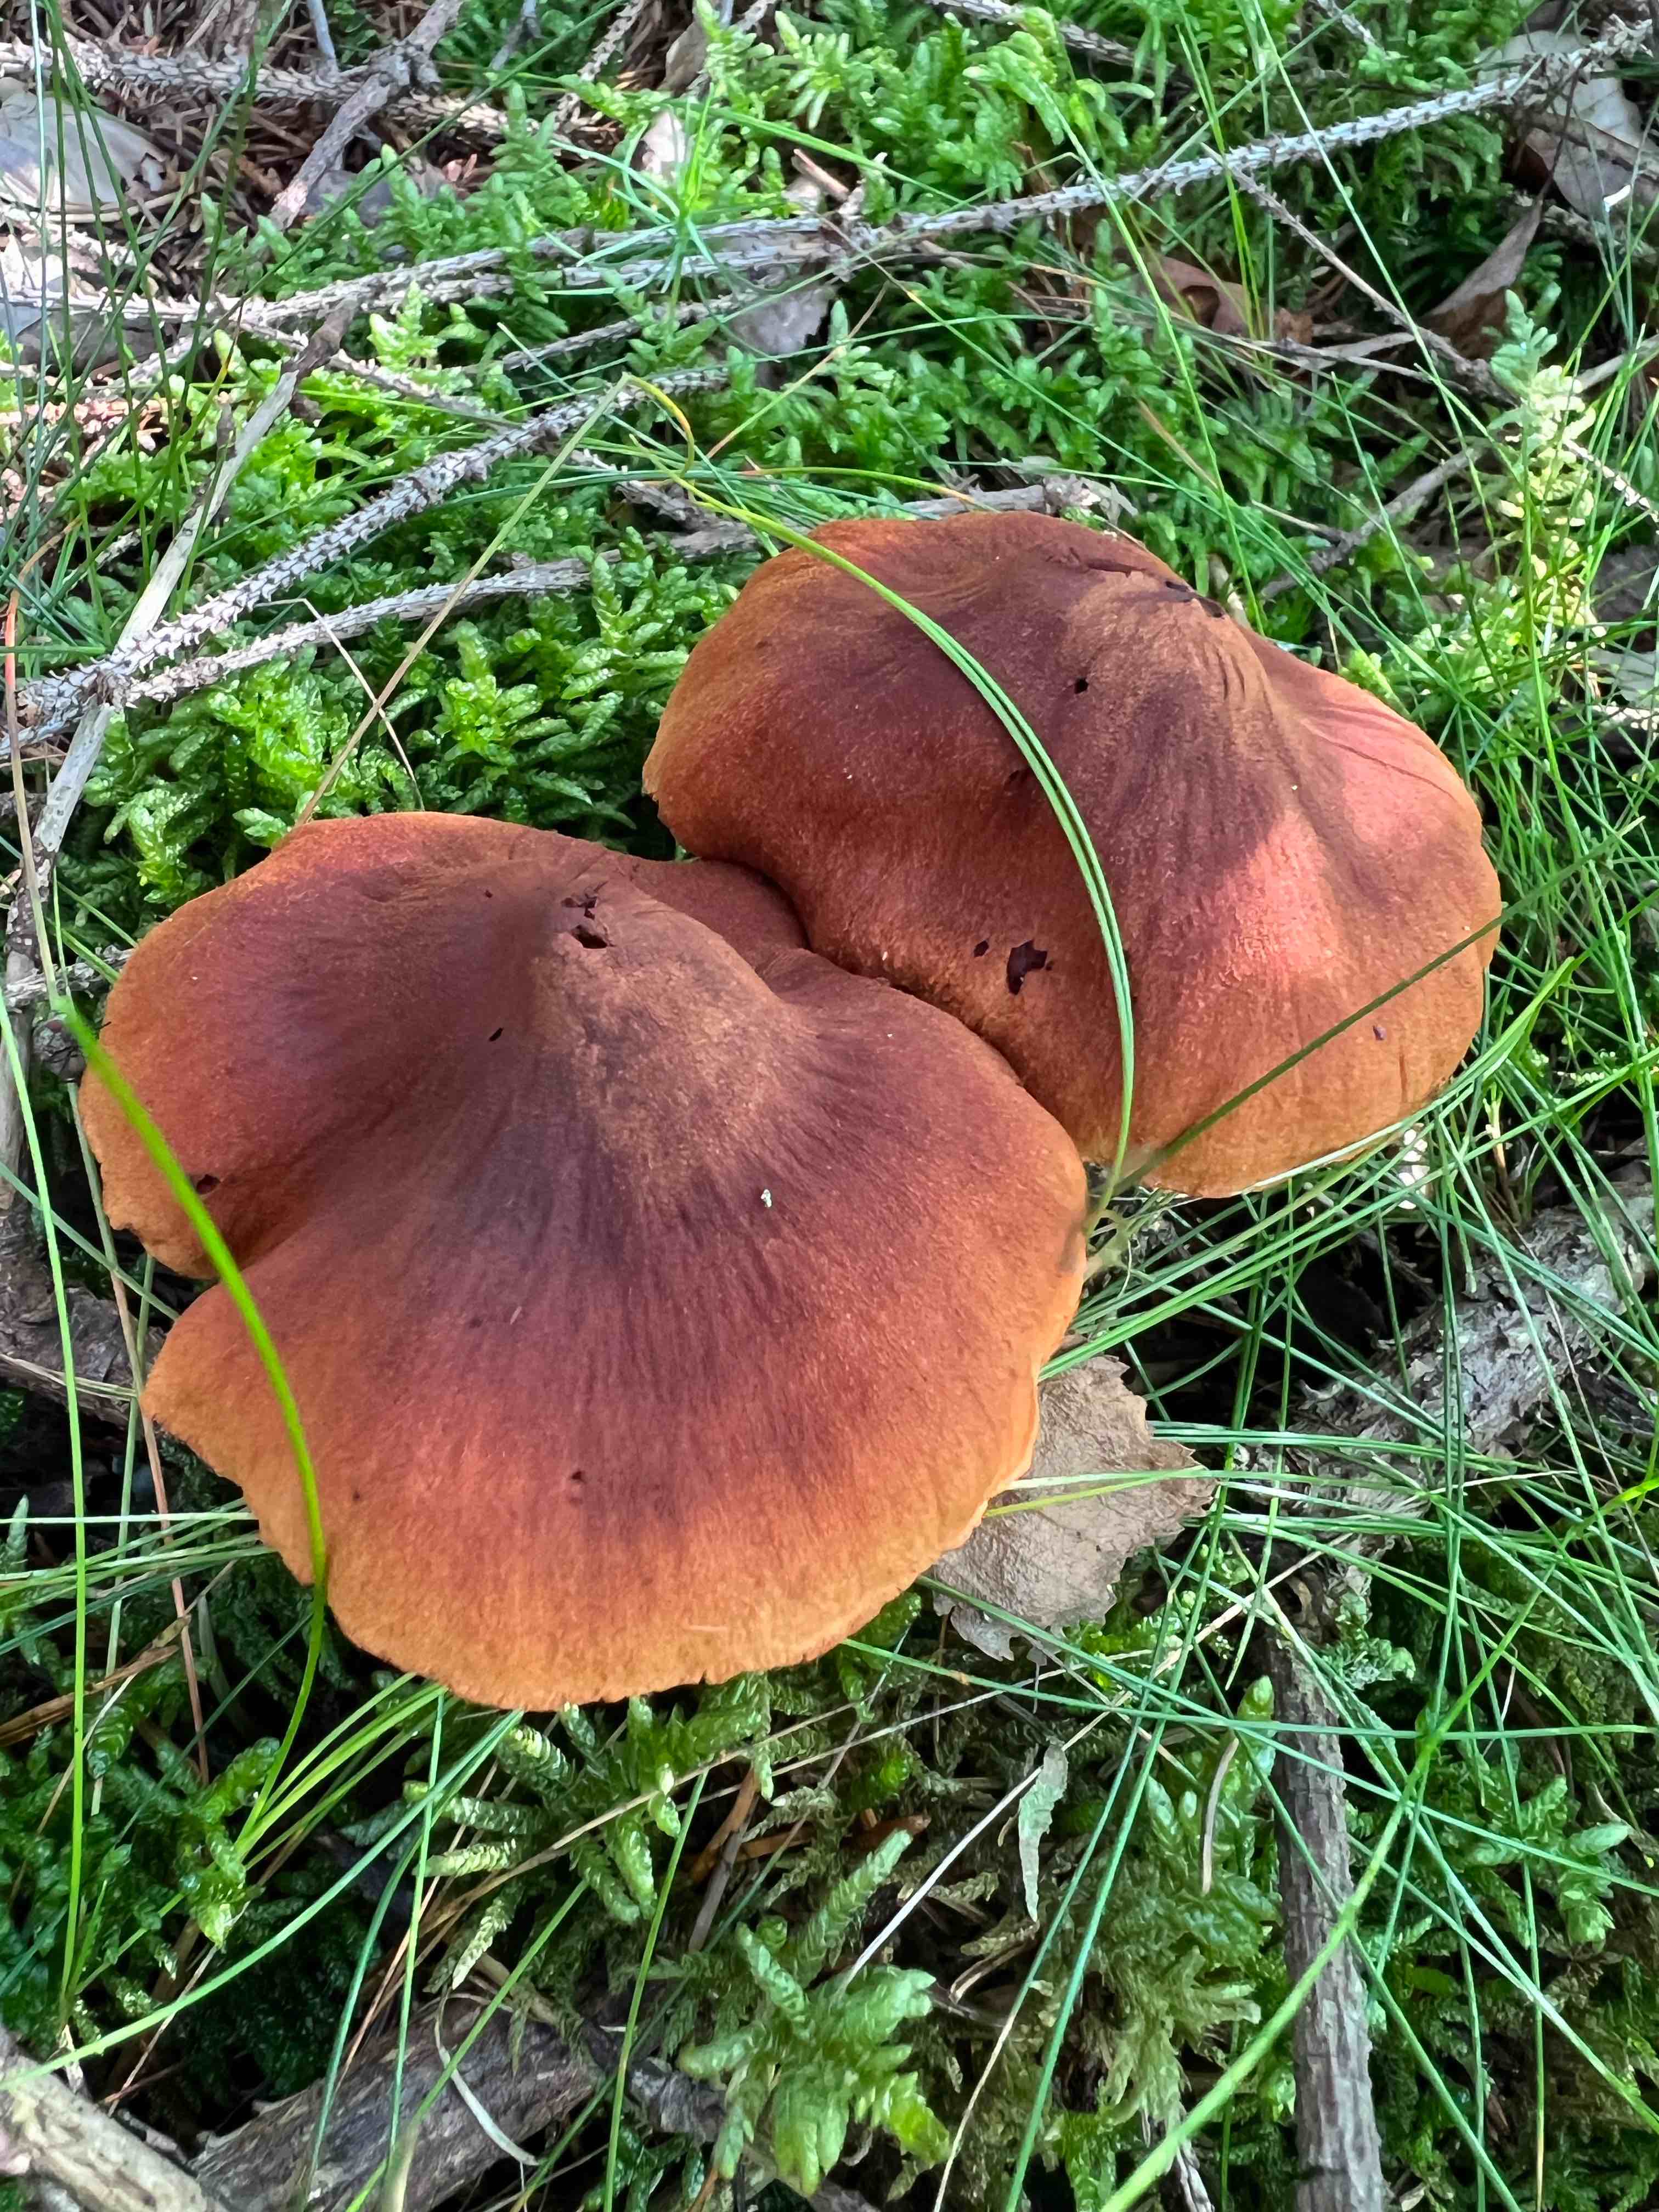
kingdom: Fungi
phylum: Basidiomycota
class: Agaricomycetes
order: Agaricales
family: Cortinariaceae
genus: Cortinarius
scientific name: Cortinarius rubellus
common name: puklet gift-slørhat
